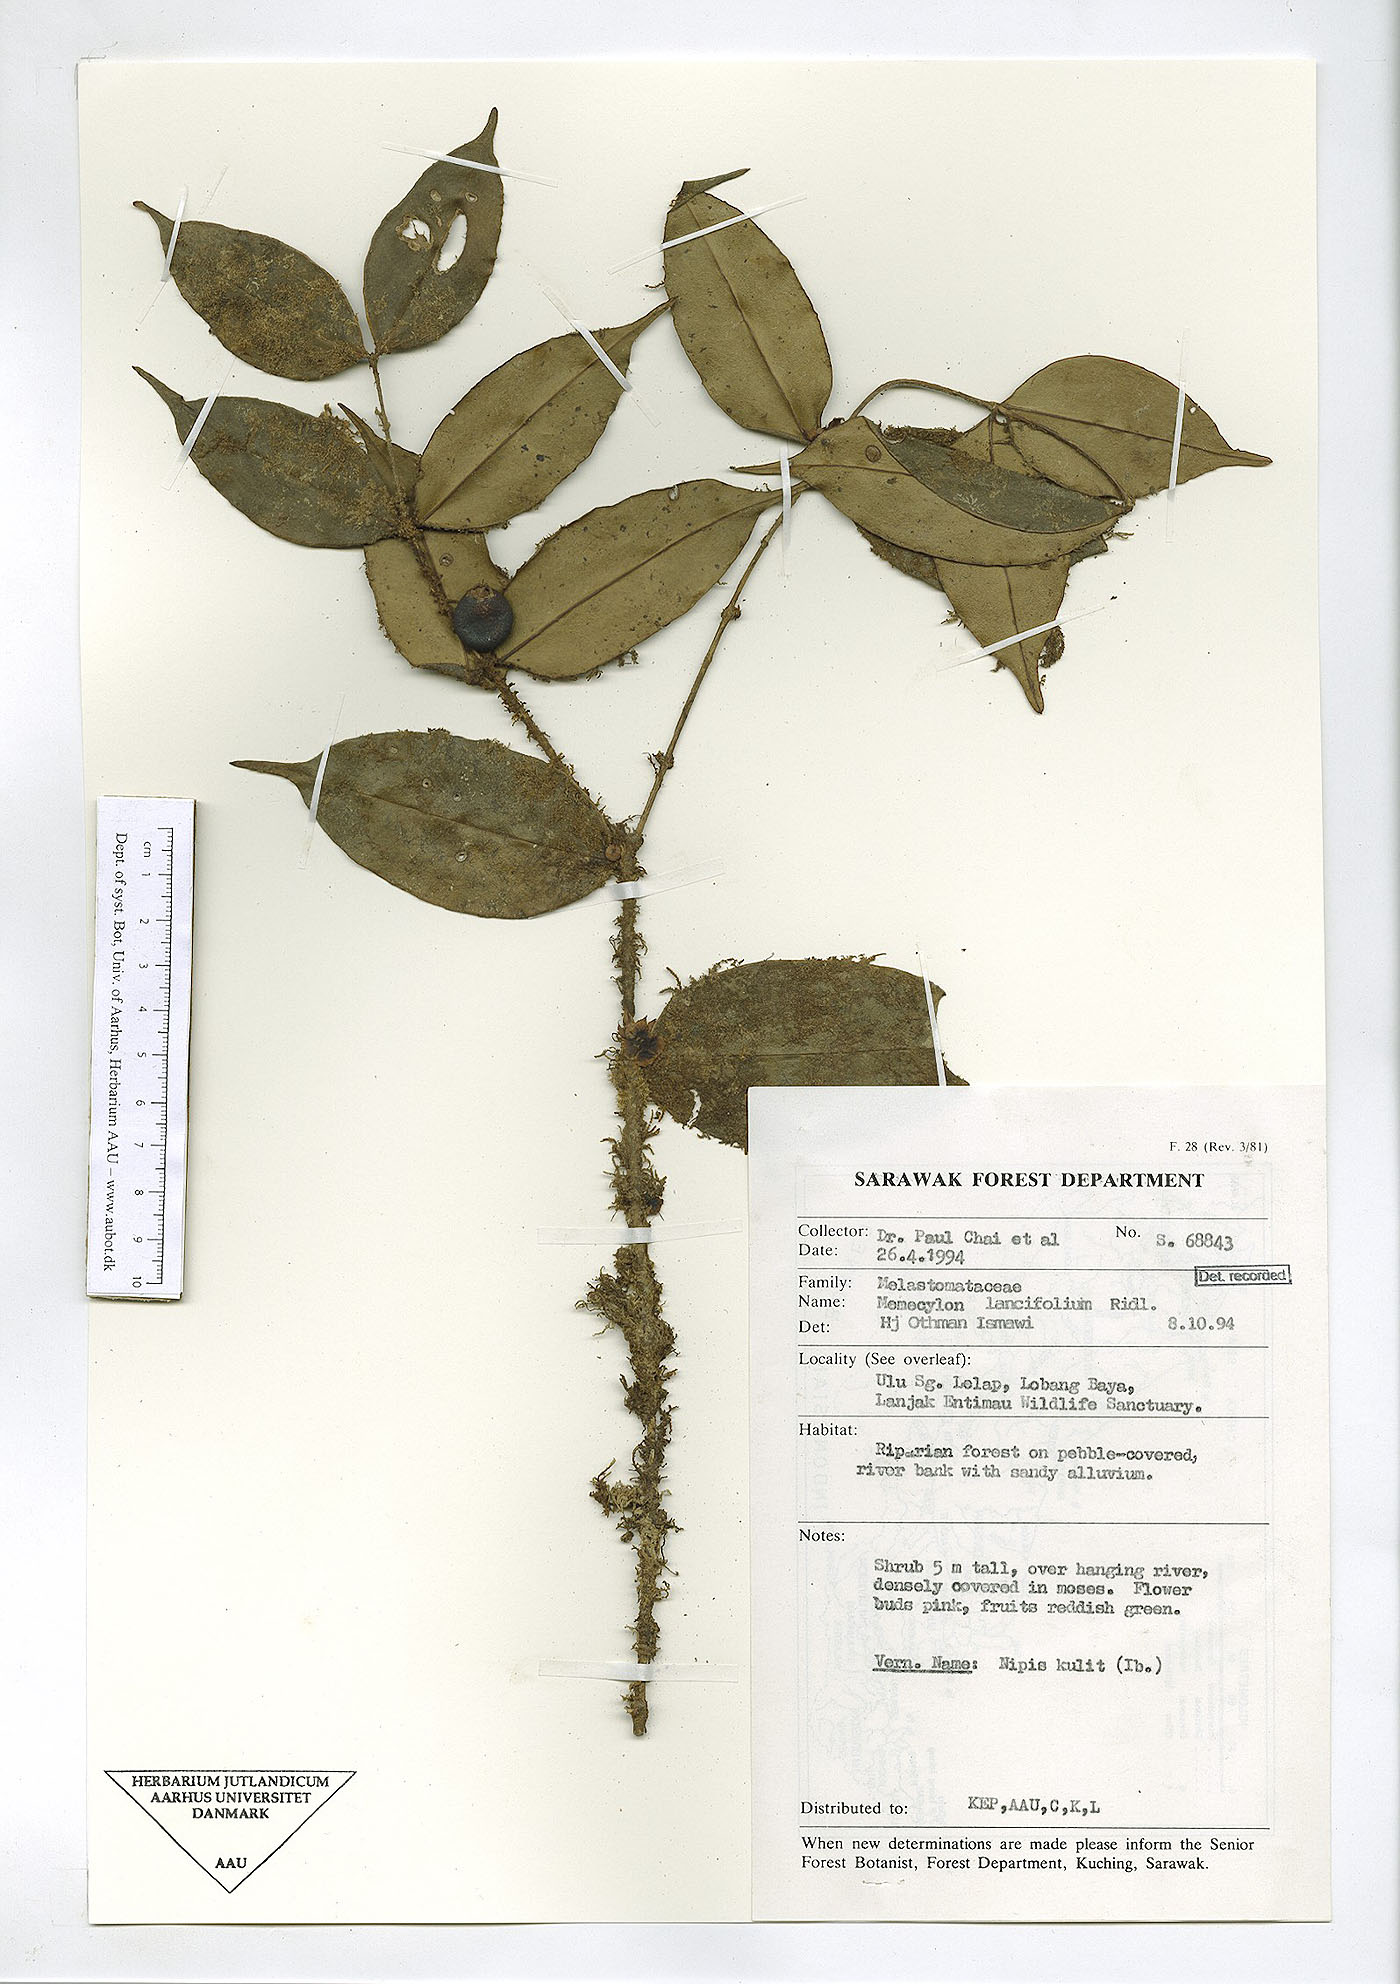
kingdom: Plantae
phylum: Tracheophyta
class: Magnoliopsida
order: Myrtales
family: Melastomataceae
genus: Memecylon
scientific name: Memecylon lancifolium
